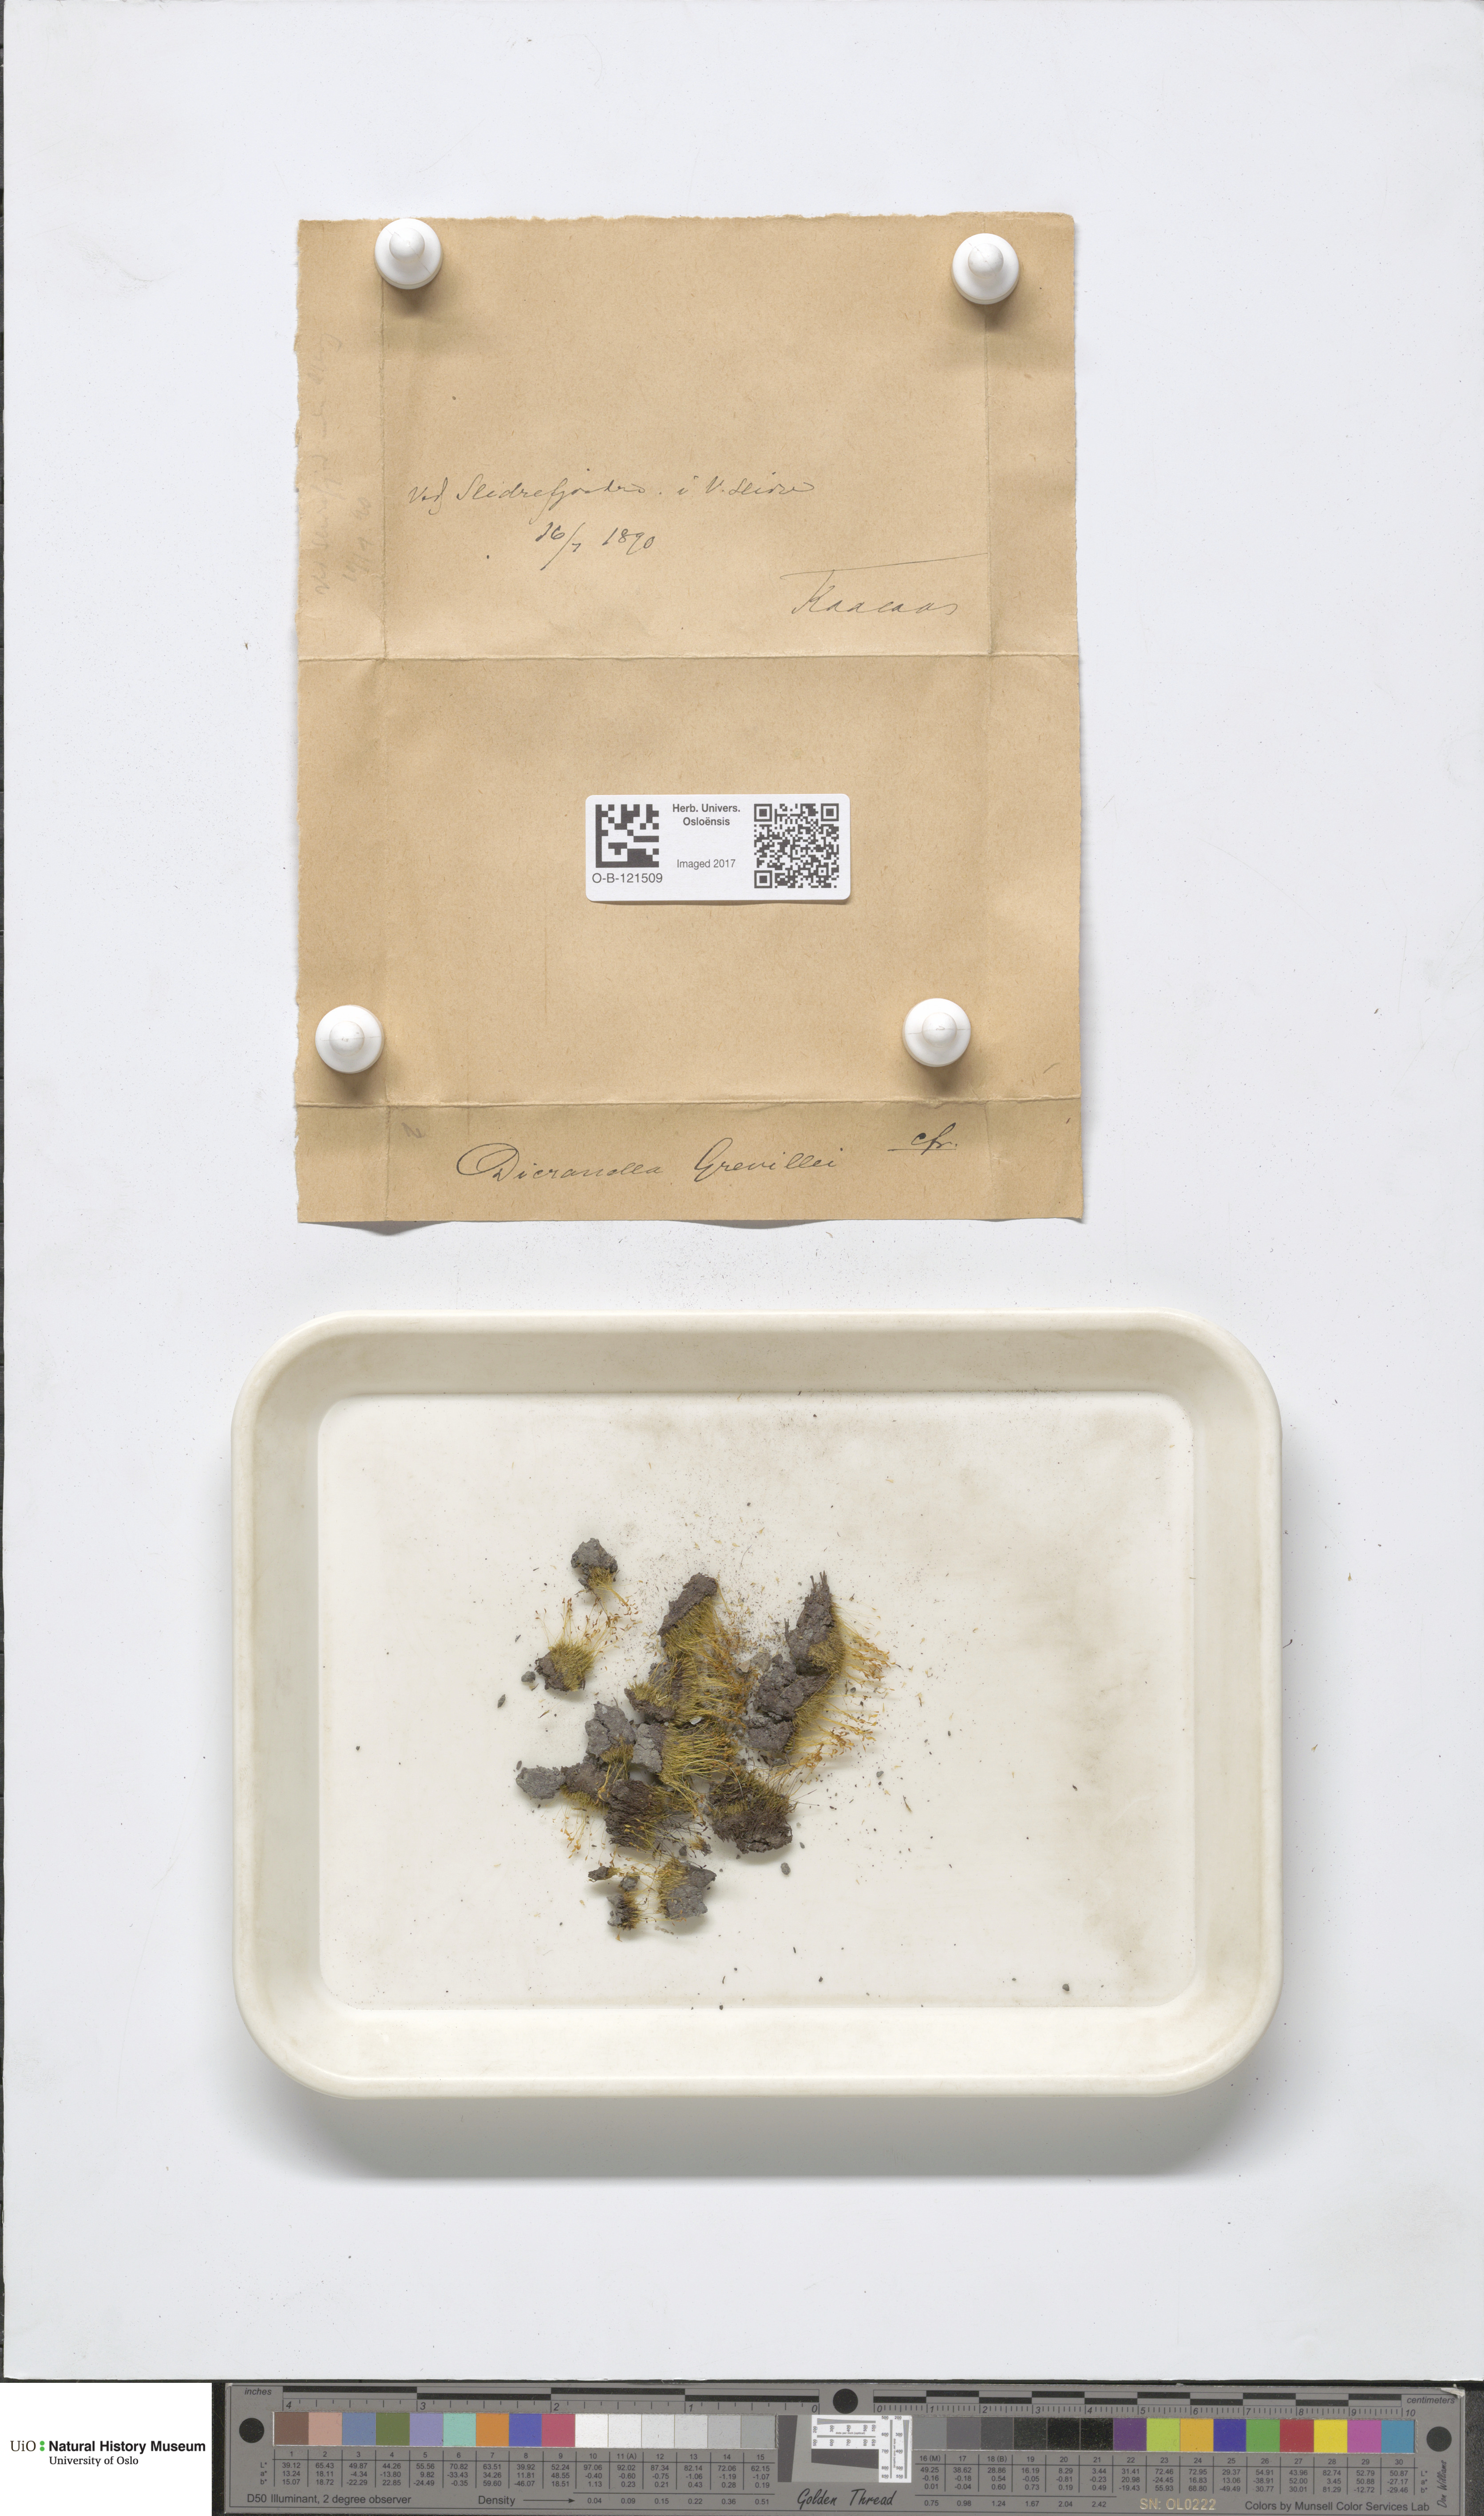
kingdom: Plantae
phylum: Bryophyta
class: Bryopsida
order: Dicranales
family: Dicranellaceae
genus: Dicranella
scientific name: Dicranella cerviculata
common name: Spur-necked forklet moss
